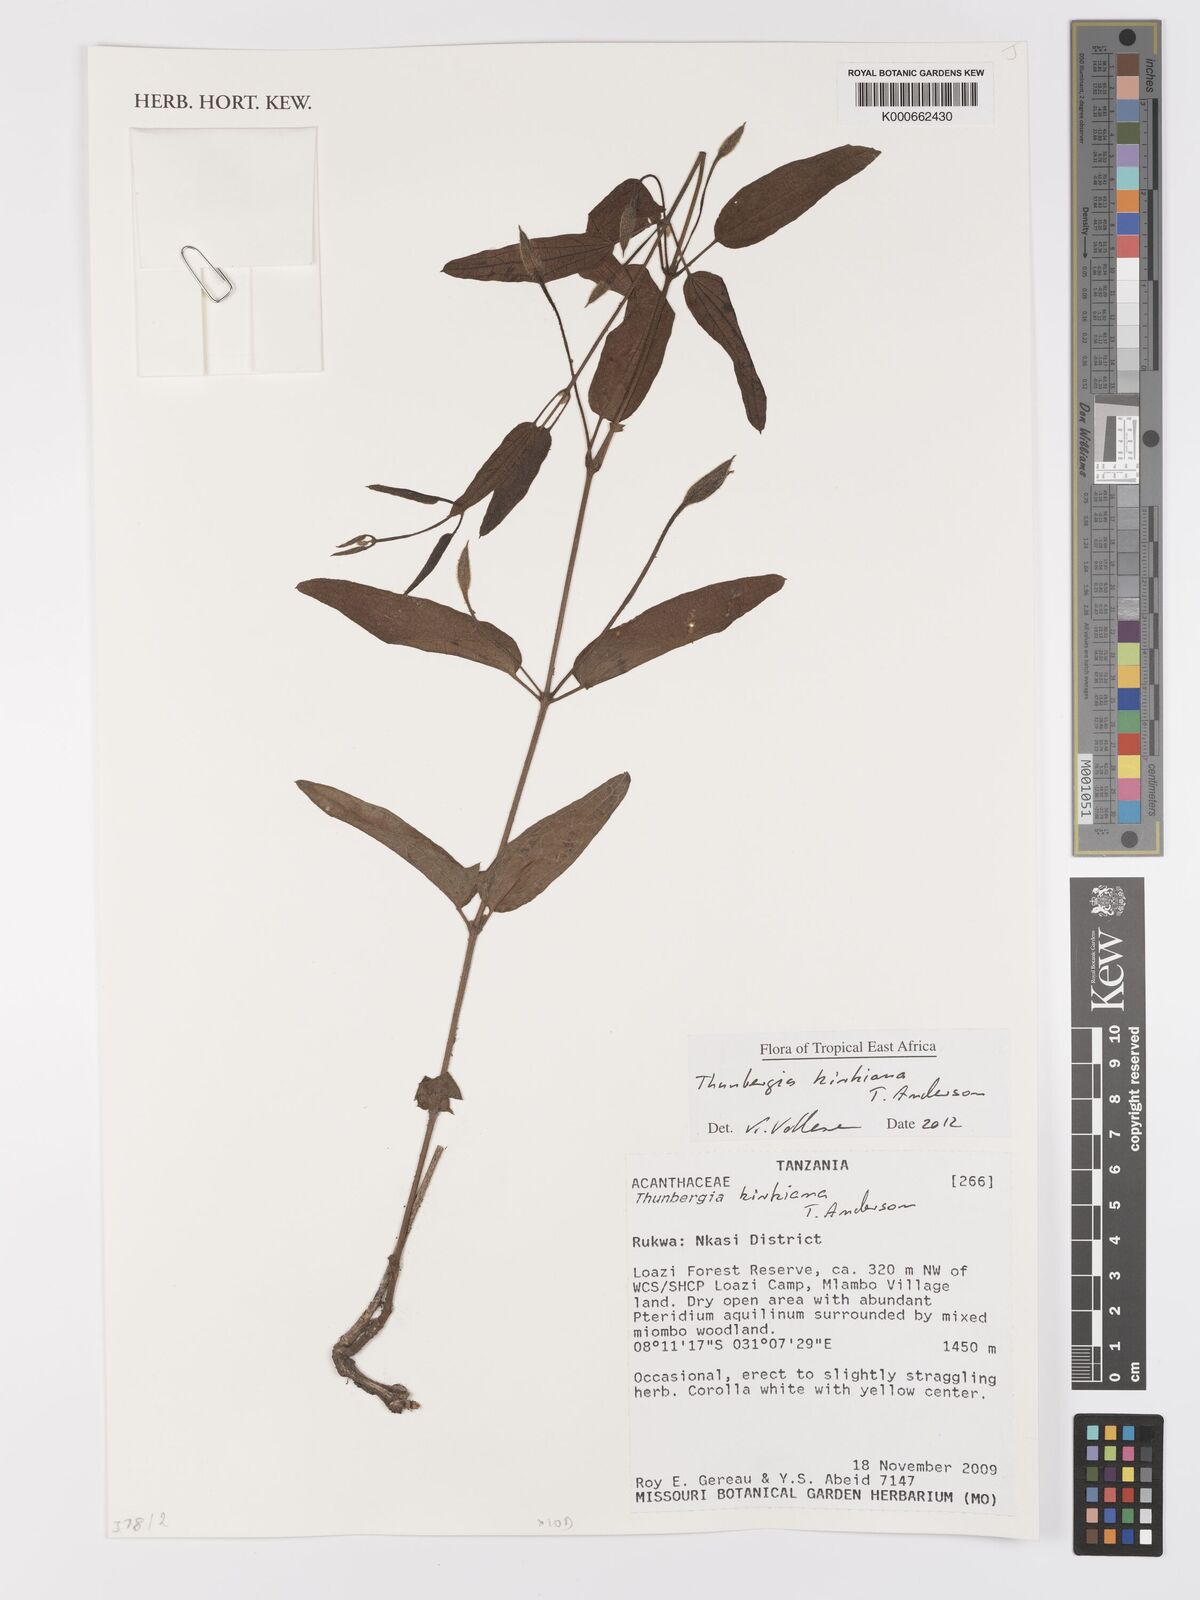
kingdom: Plantae
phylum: Tracheophyta
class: Magnoliopsida
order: Lamiales
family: Acanthaceae
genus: Thunbergia
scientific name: Thunbergia kirkiana
